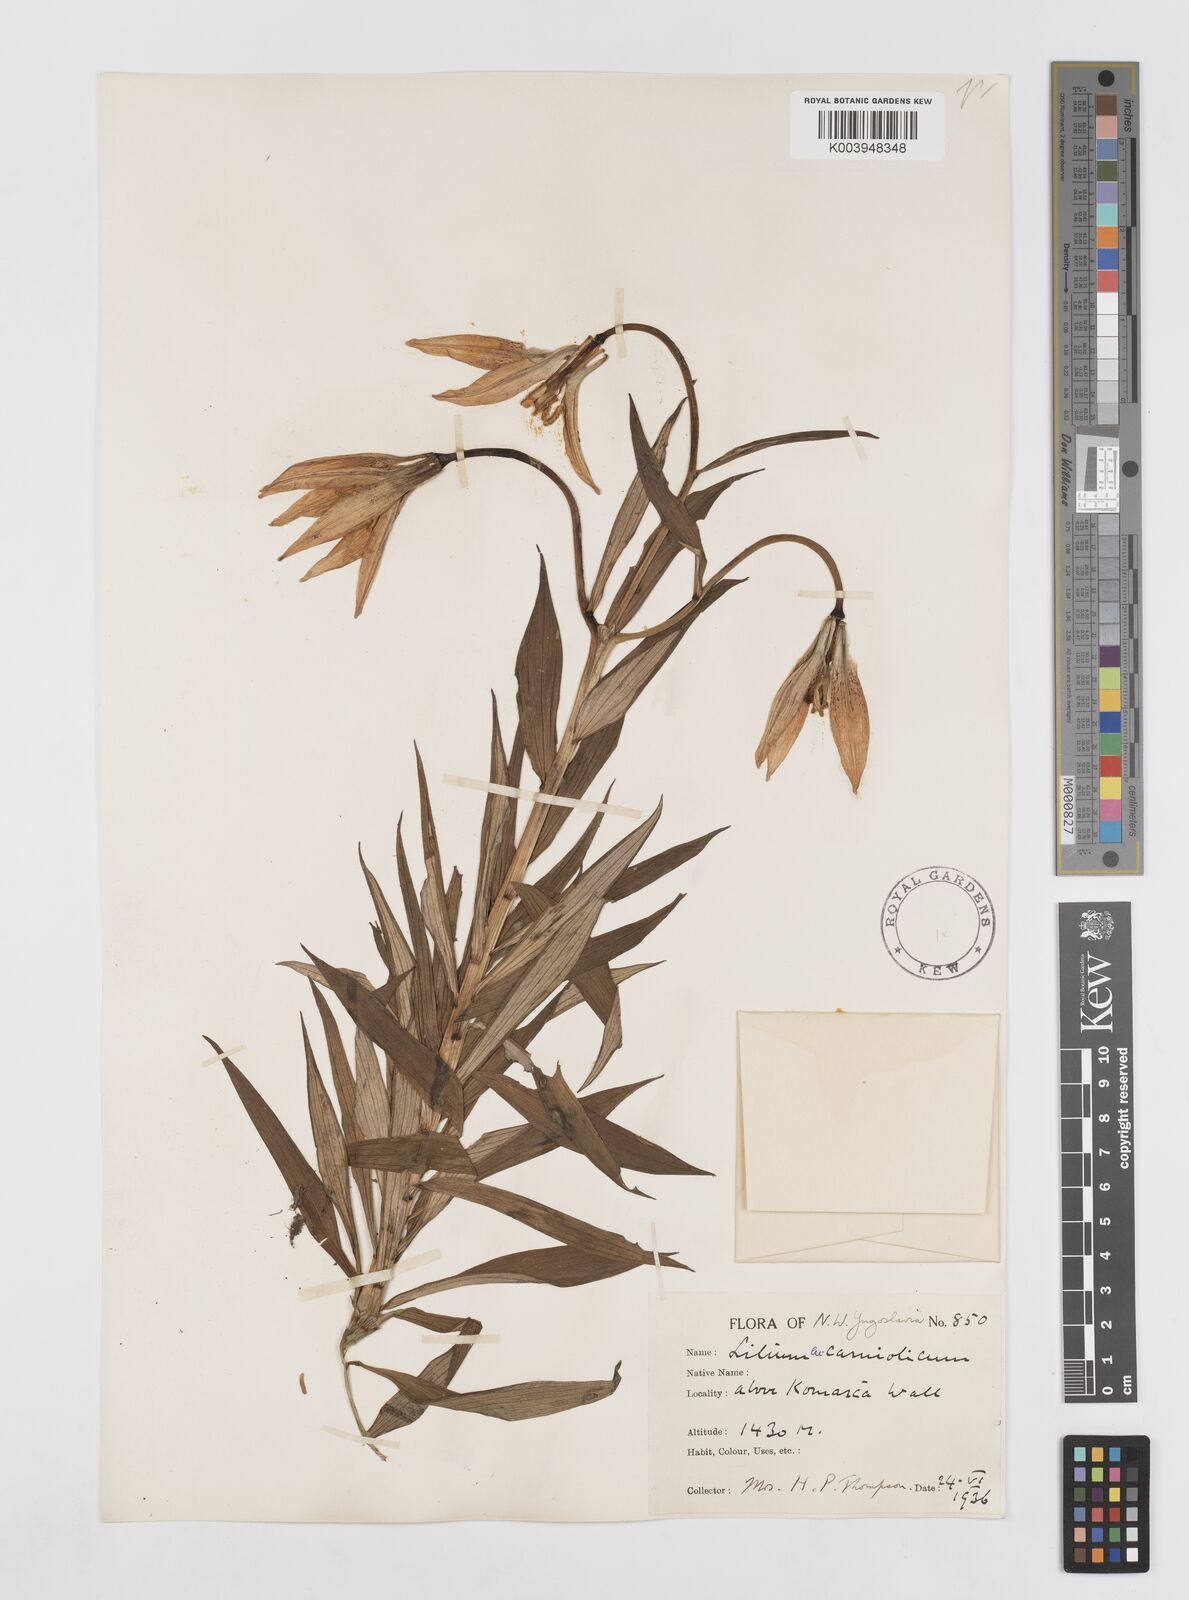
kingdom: Plantae
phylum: Tracheophyta
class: Liliopsida
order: Liliales
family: Liliaceae
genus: Lilium
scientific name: Lilium carniolicum
